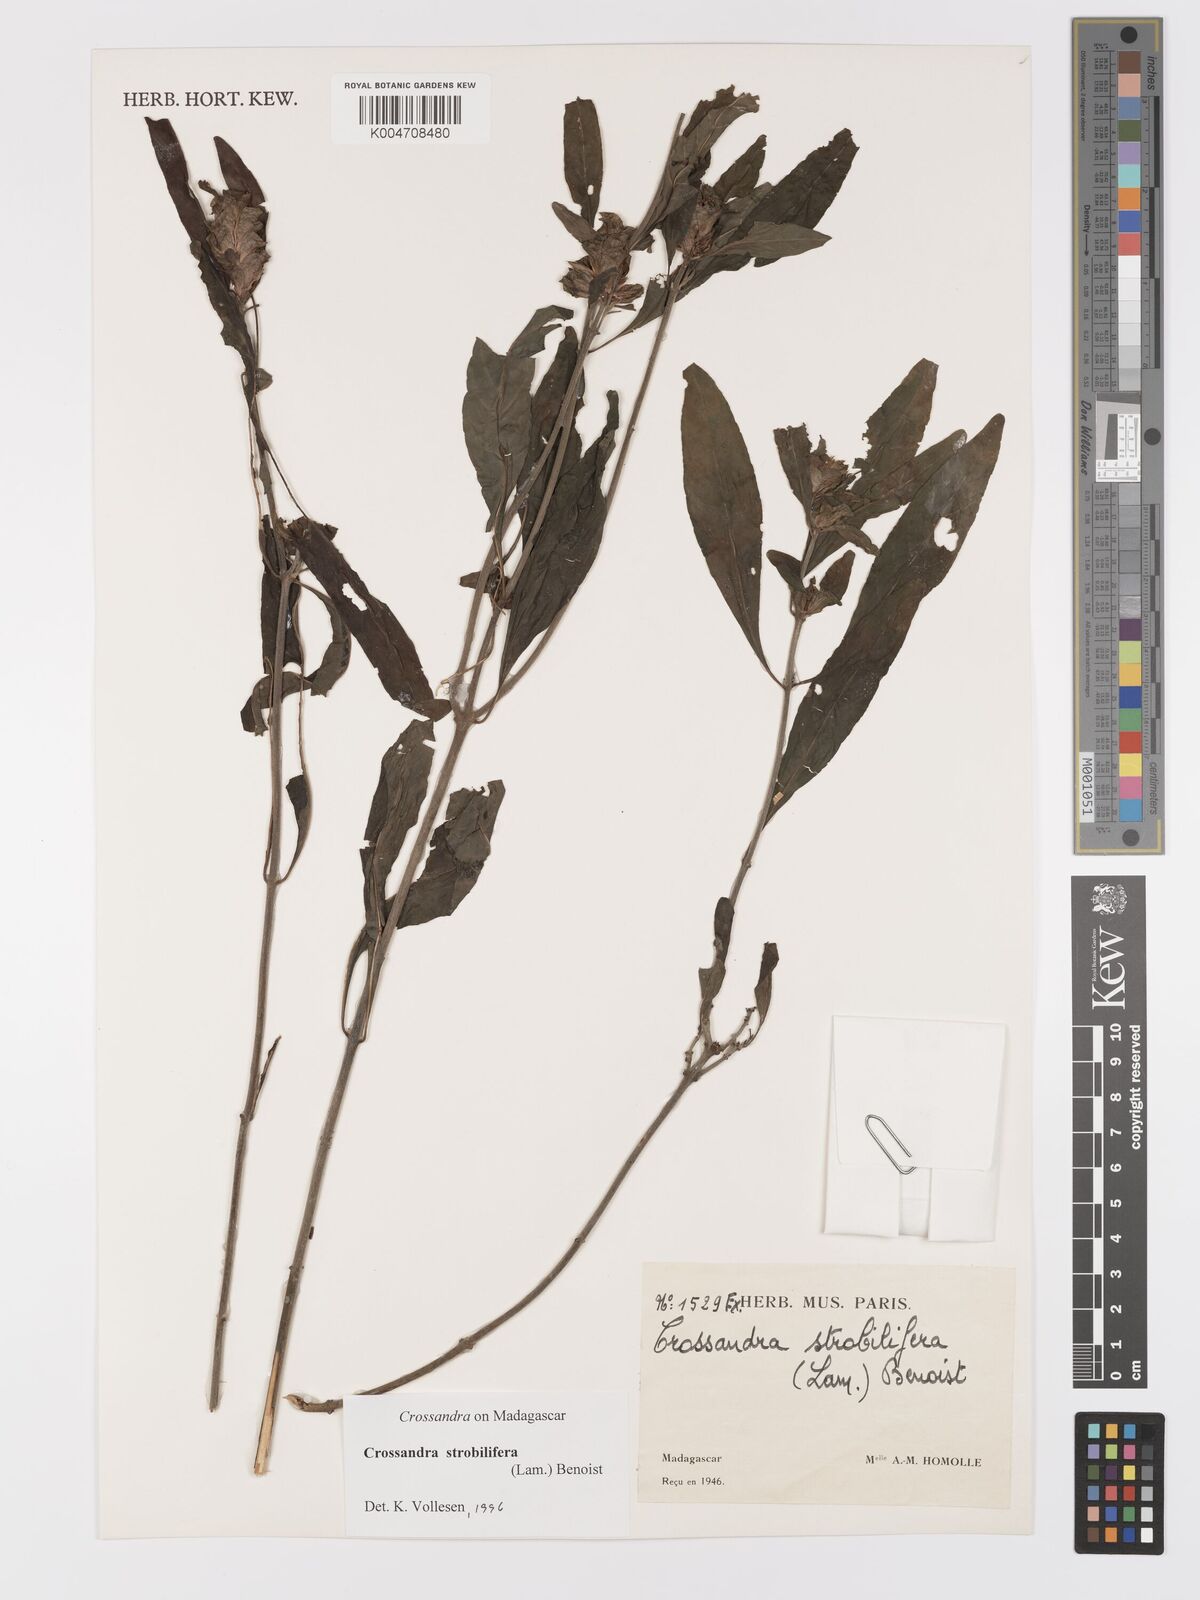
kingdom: Plantae
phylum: Tracheophyta
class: Magnoliopsida
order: Lamiales
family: Acanthaceae
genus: Crossandra
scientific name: Crossandra strobilifera
